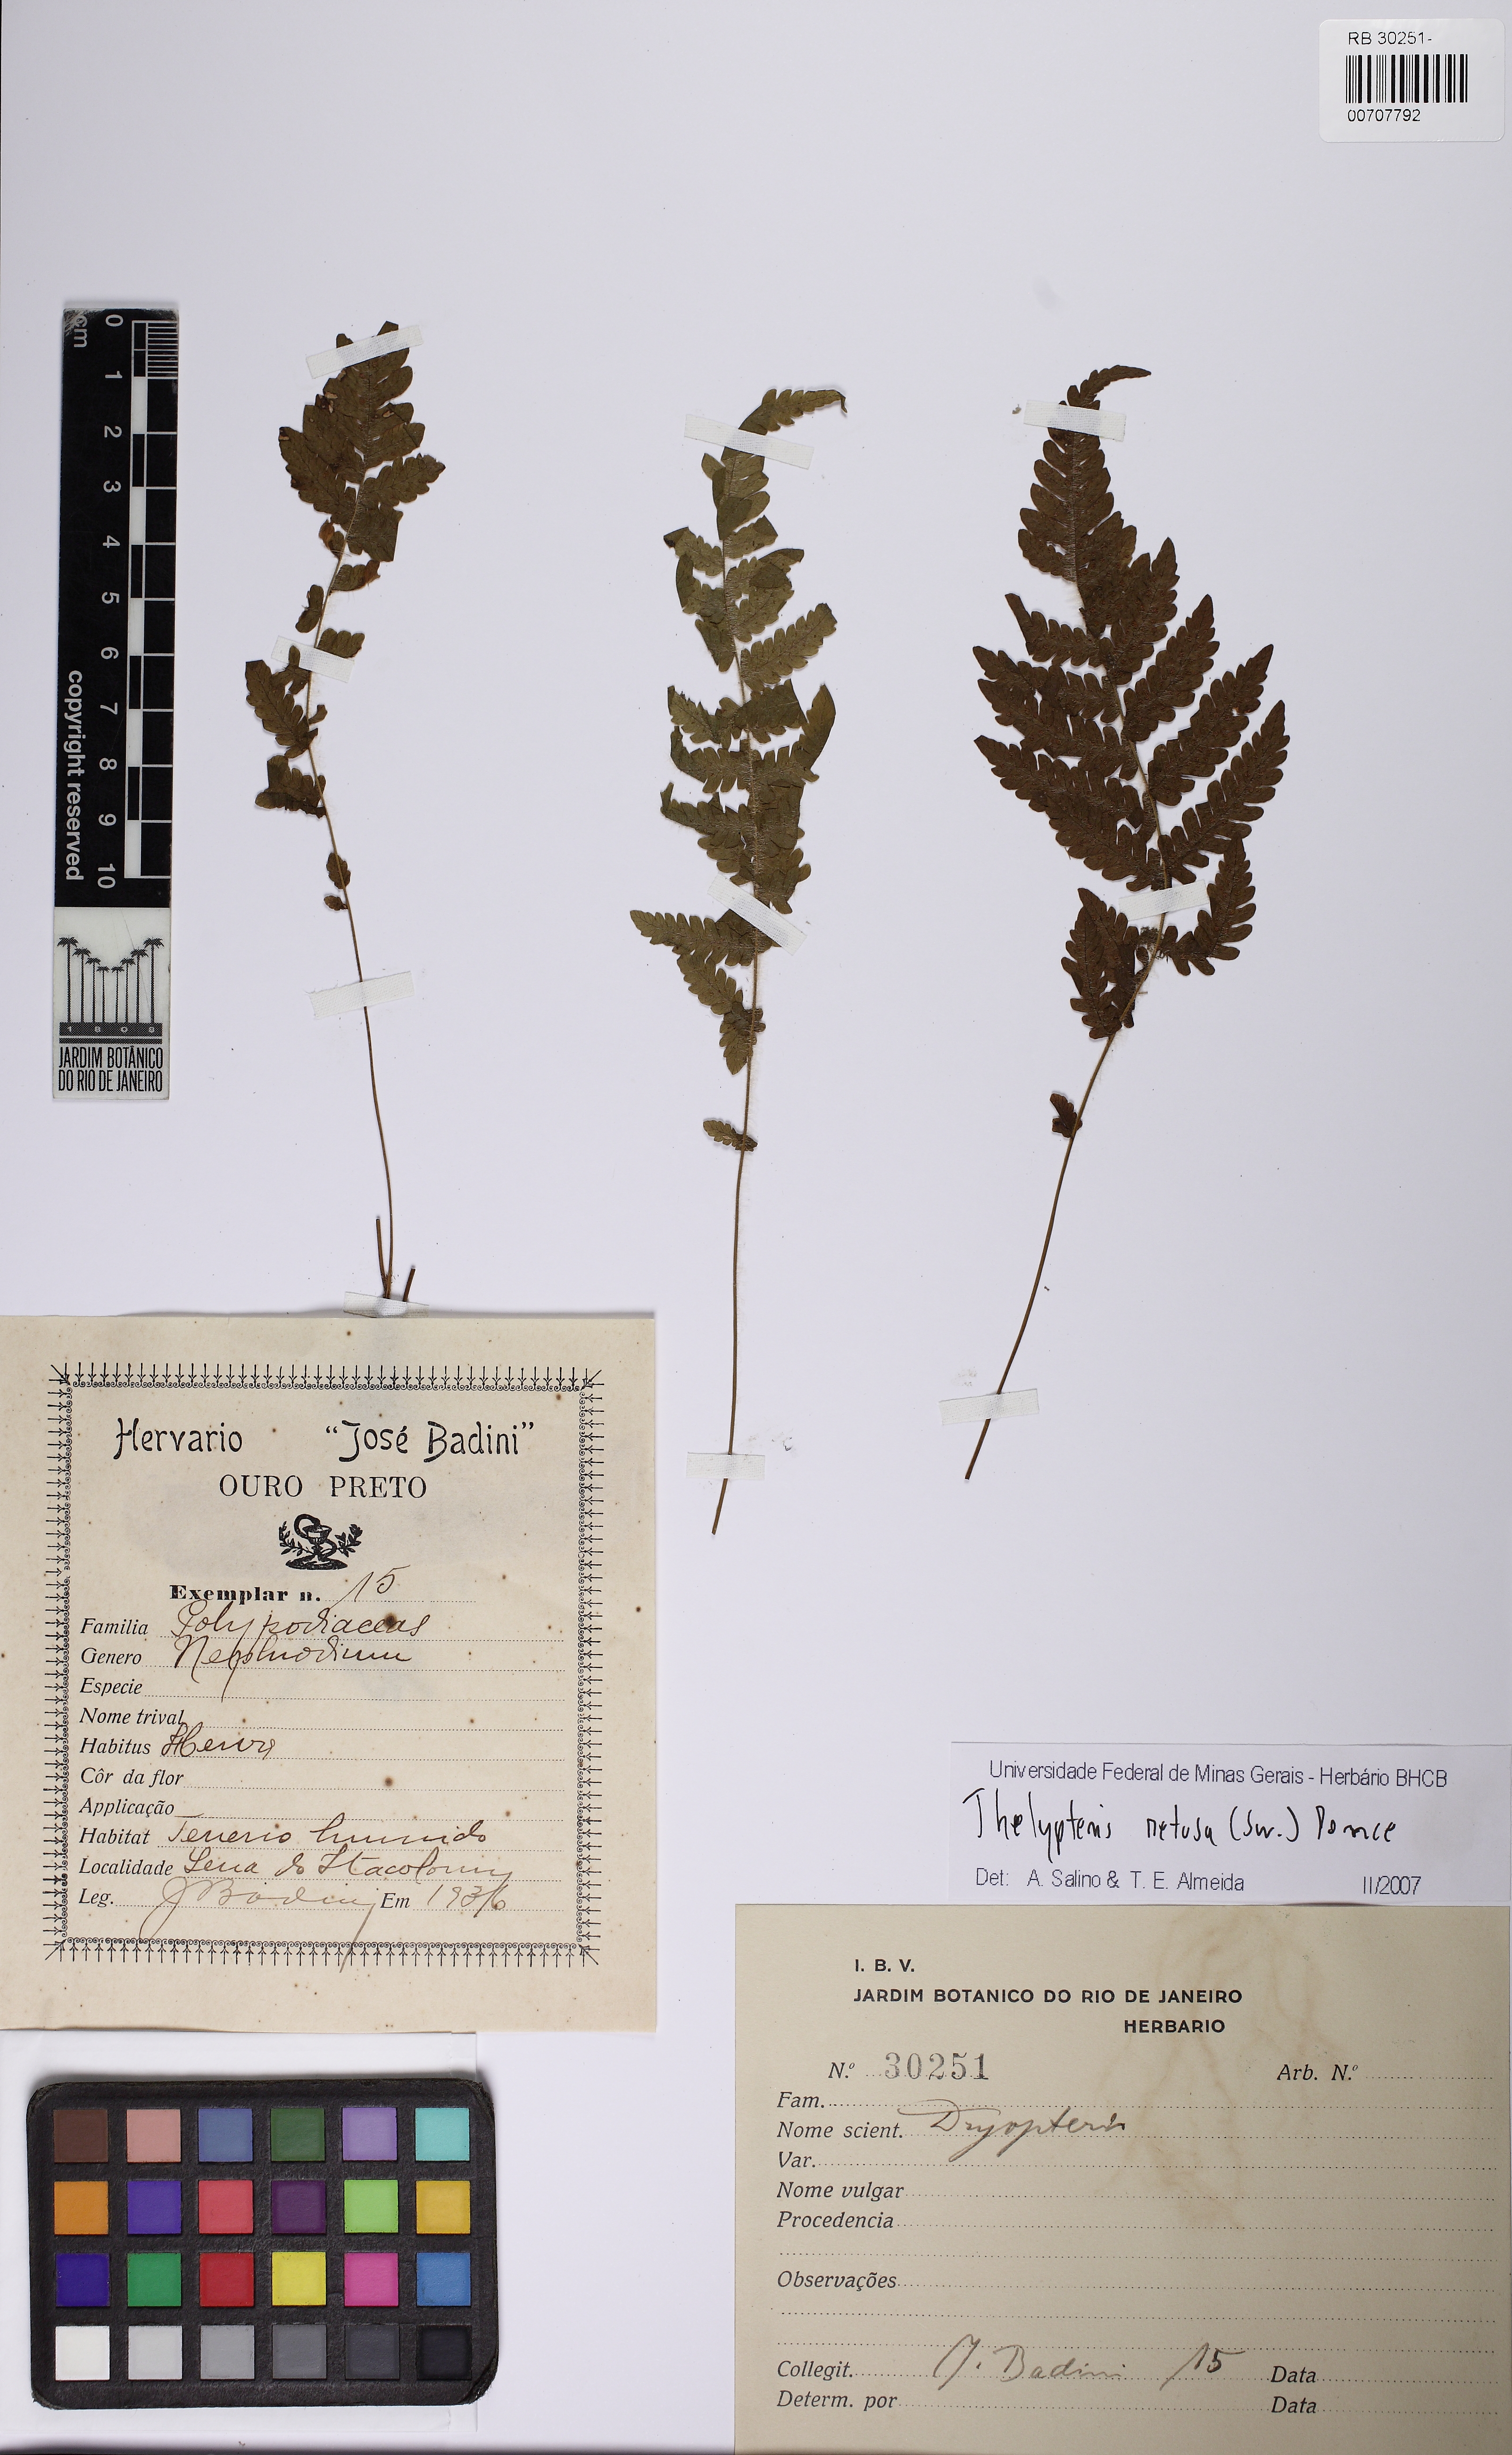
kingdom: Plantae
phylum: Tracheophyta
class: Polypodiopsida
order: Polypodiales
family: Thelypteridaceae
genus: Amauropelta
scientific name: Amauropelta retusa
